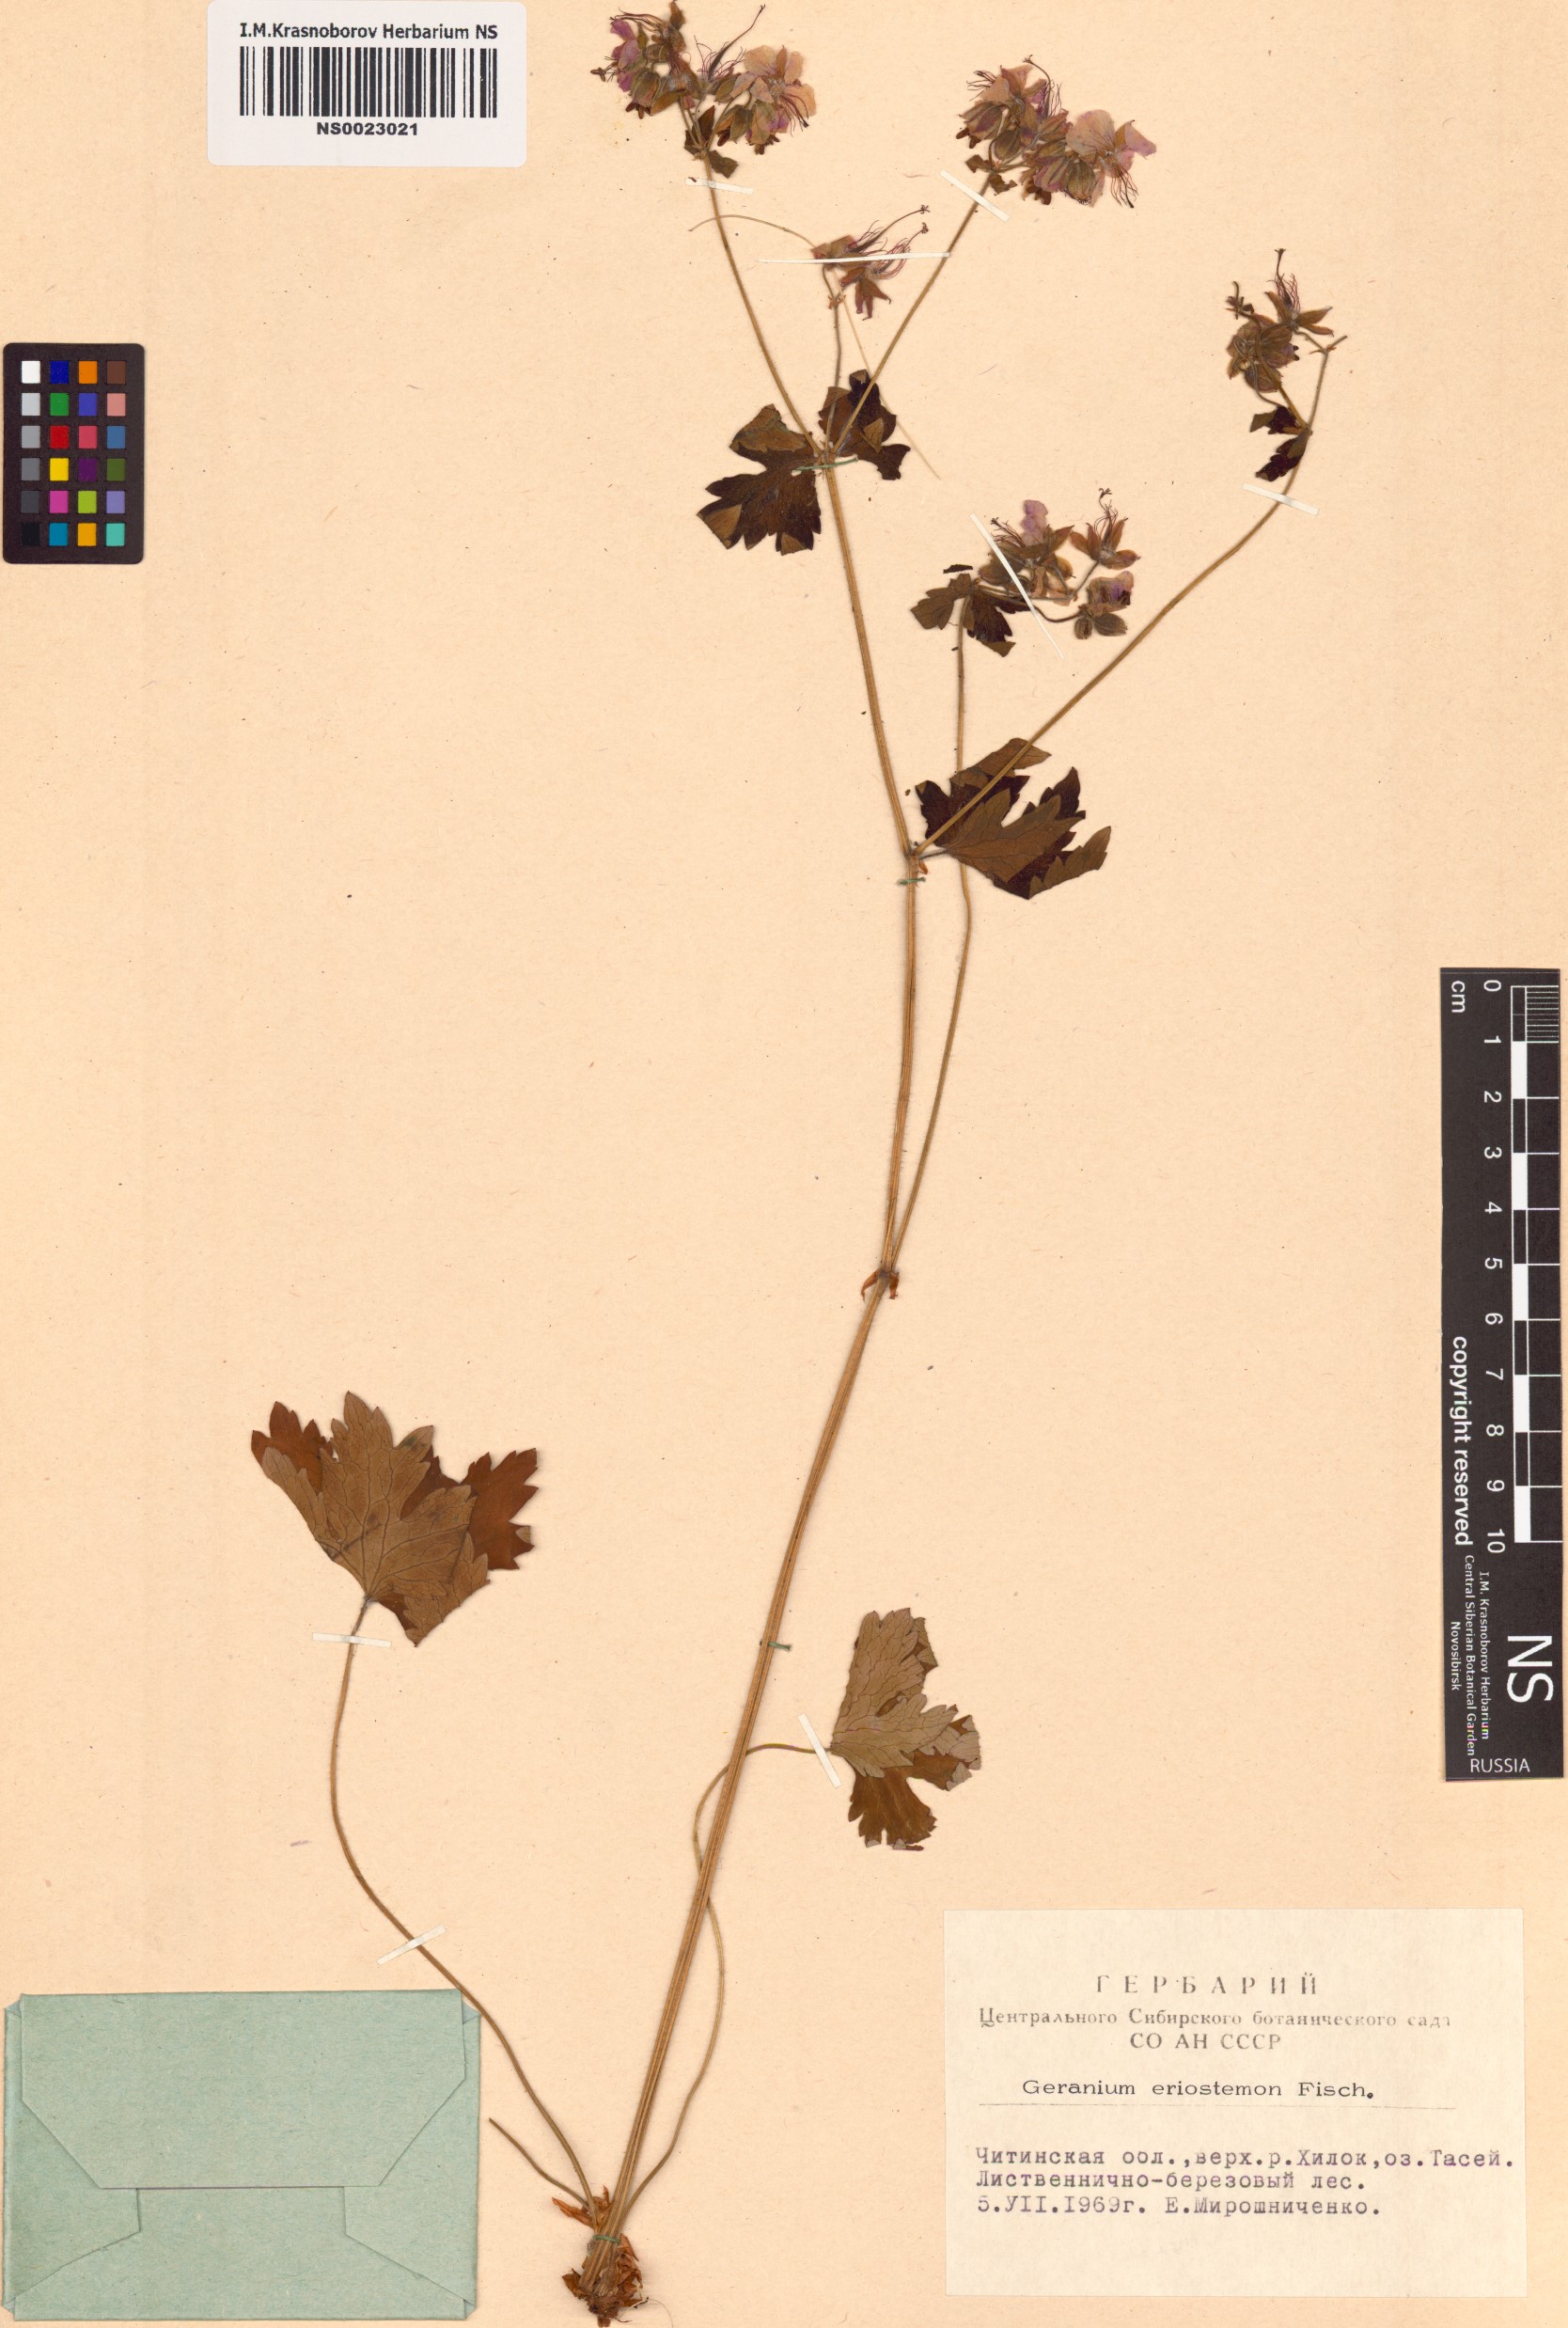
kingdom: Plantae
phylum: Tracheophyta
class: Magnoliopsida
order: Geraniales
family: Geraniaceae
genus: Geranium
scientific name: Geranium platyanthum
